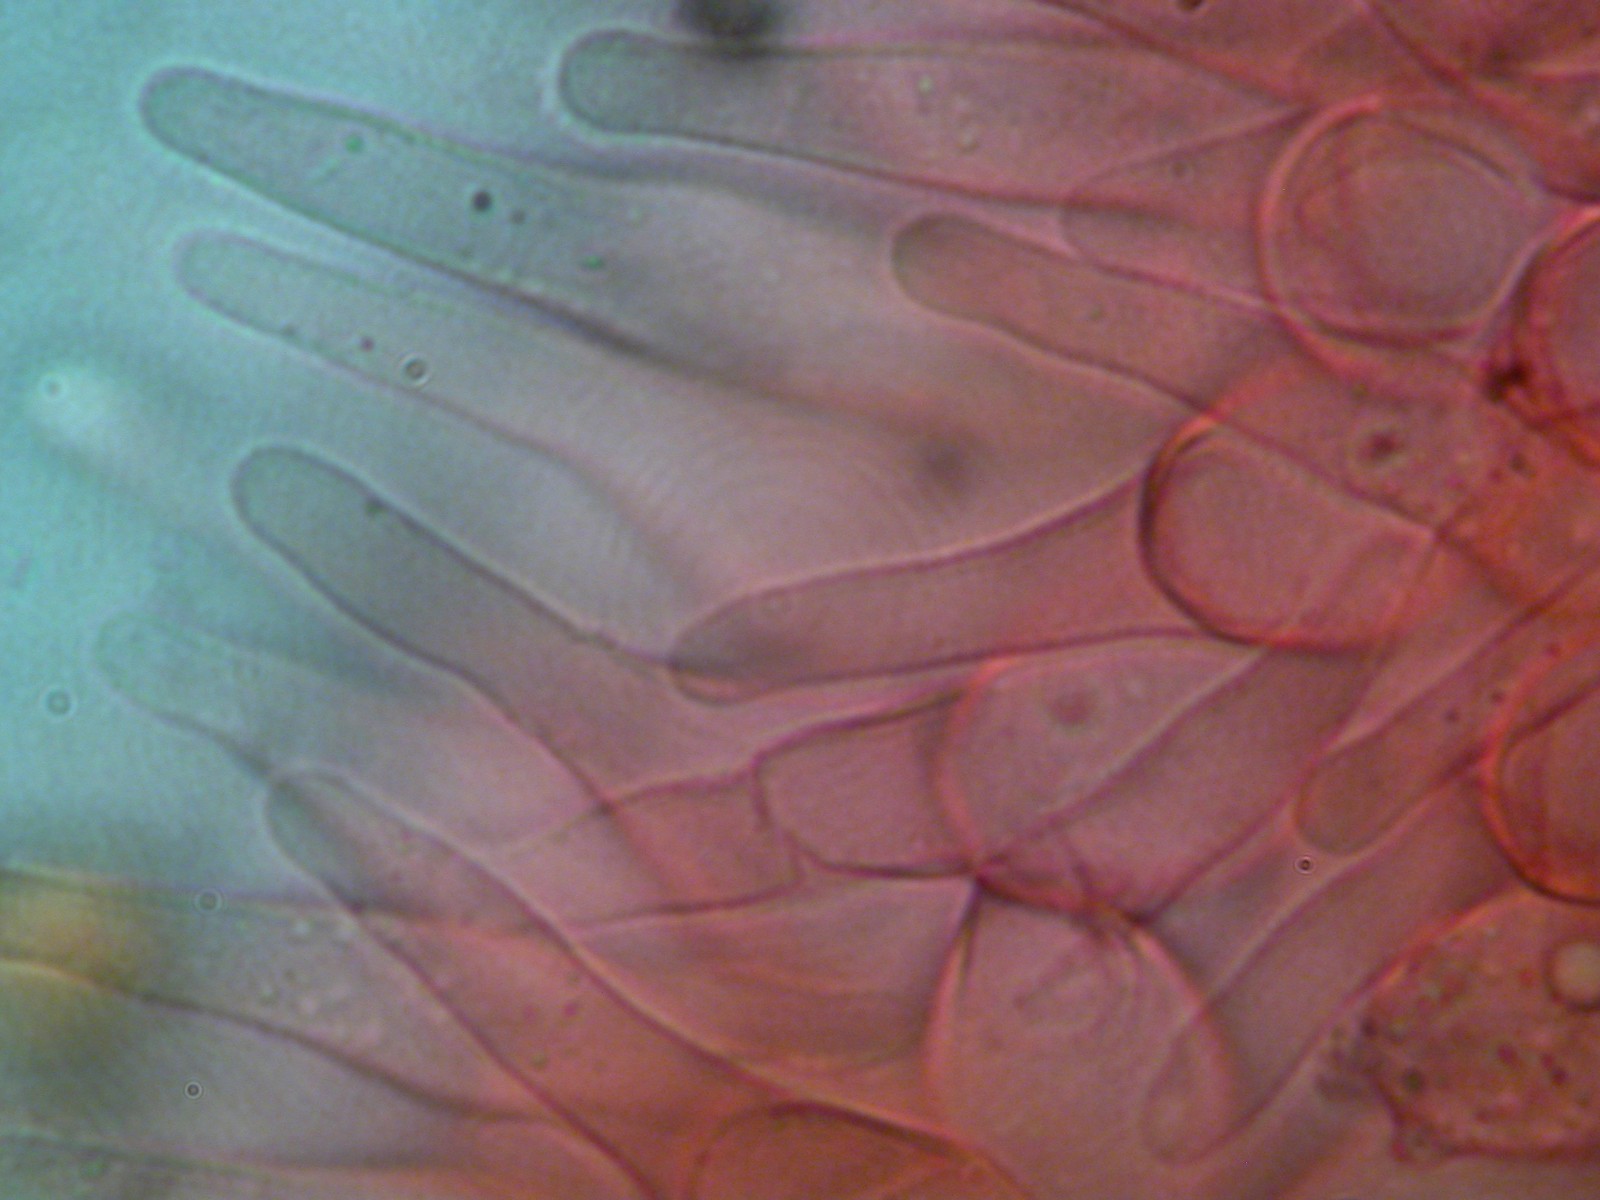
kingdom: Fungi
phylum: Basidiomycota
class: Agaricomycetes
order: Agaricales
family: Hymenogastraceae
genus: Galerina
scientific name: Galerina
